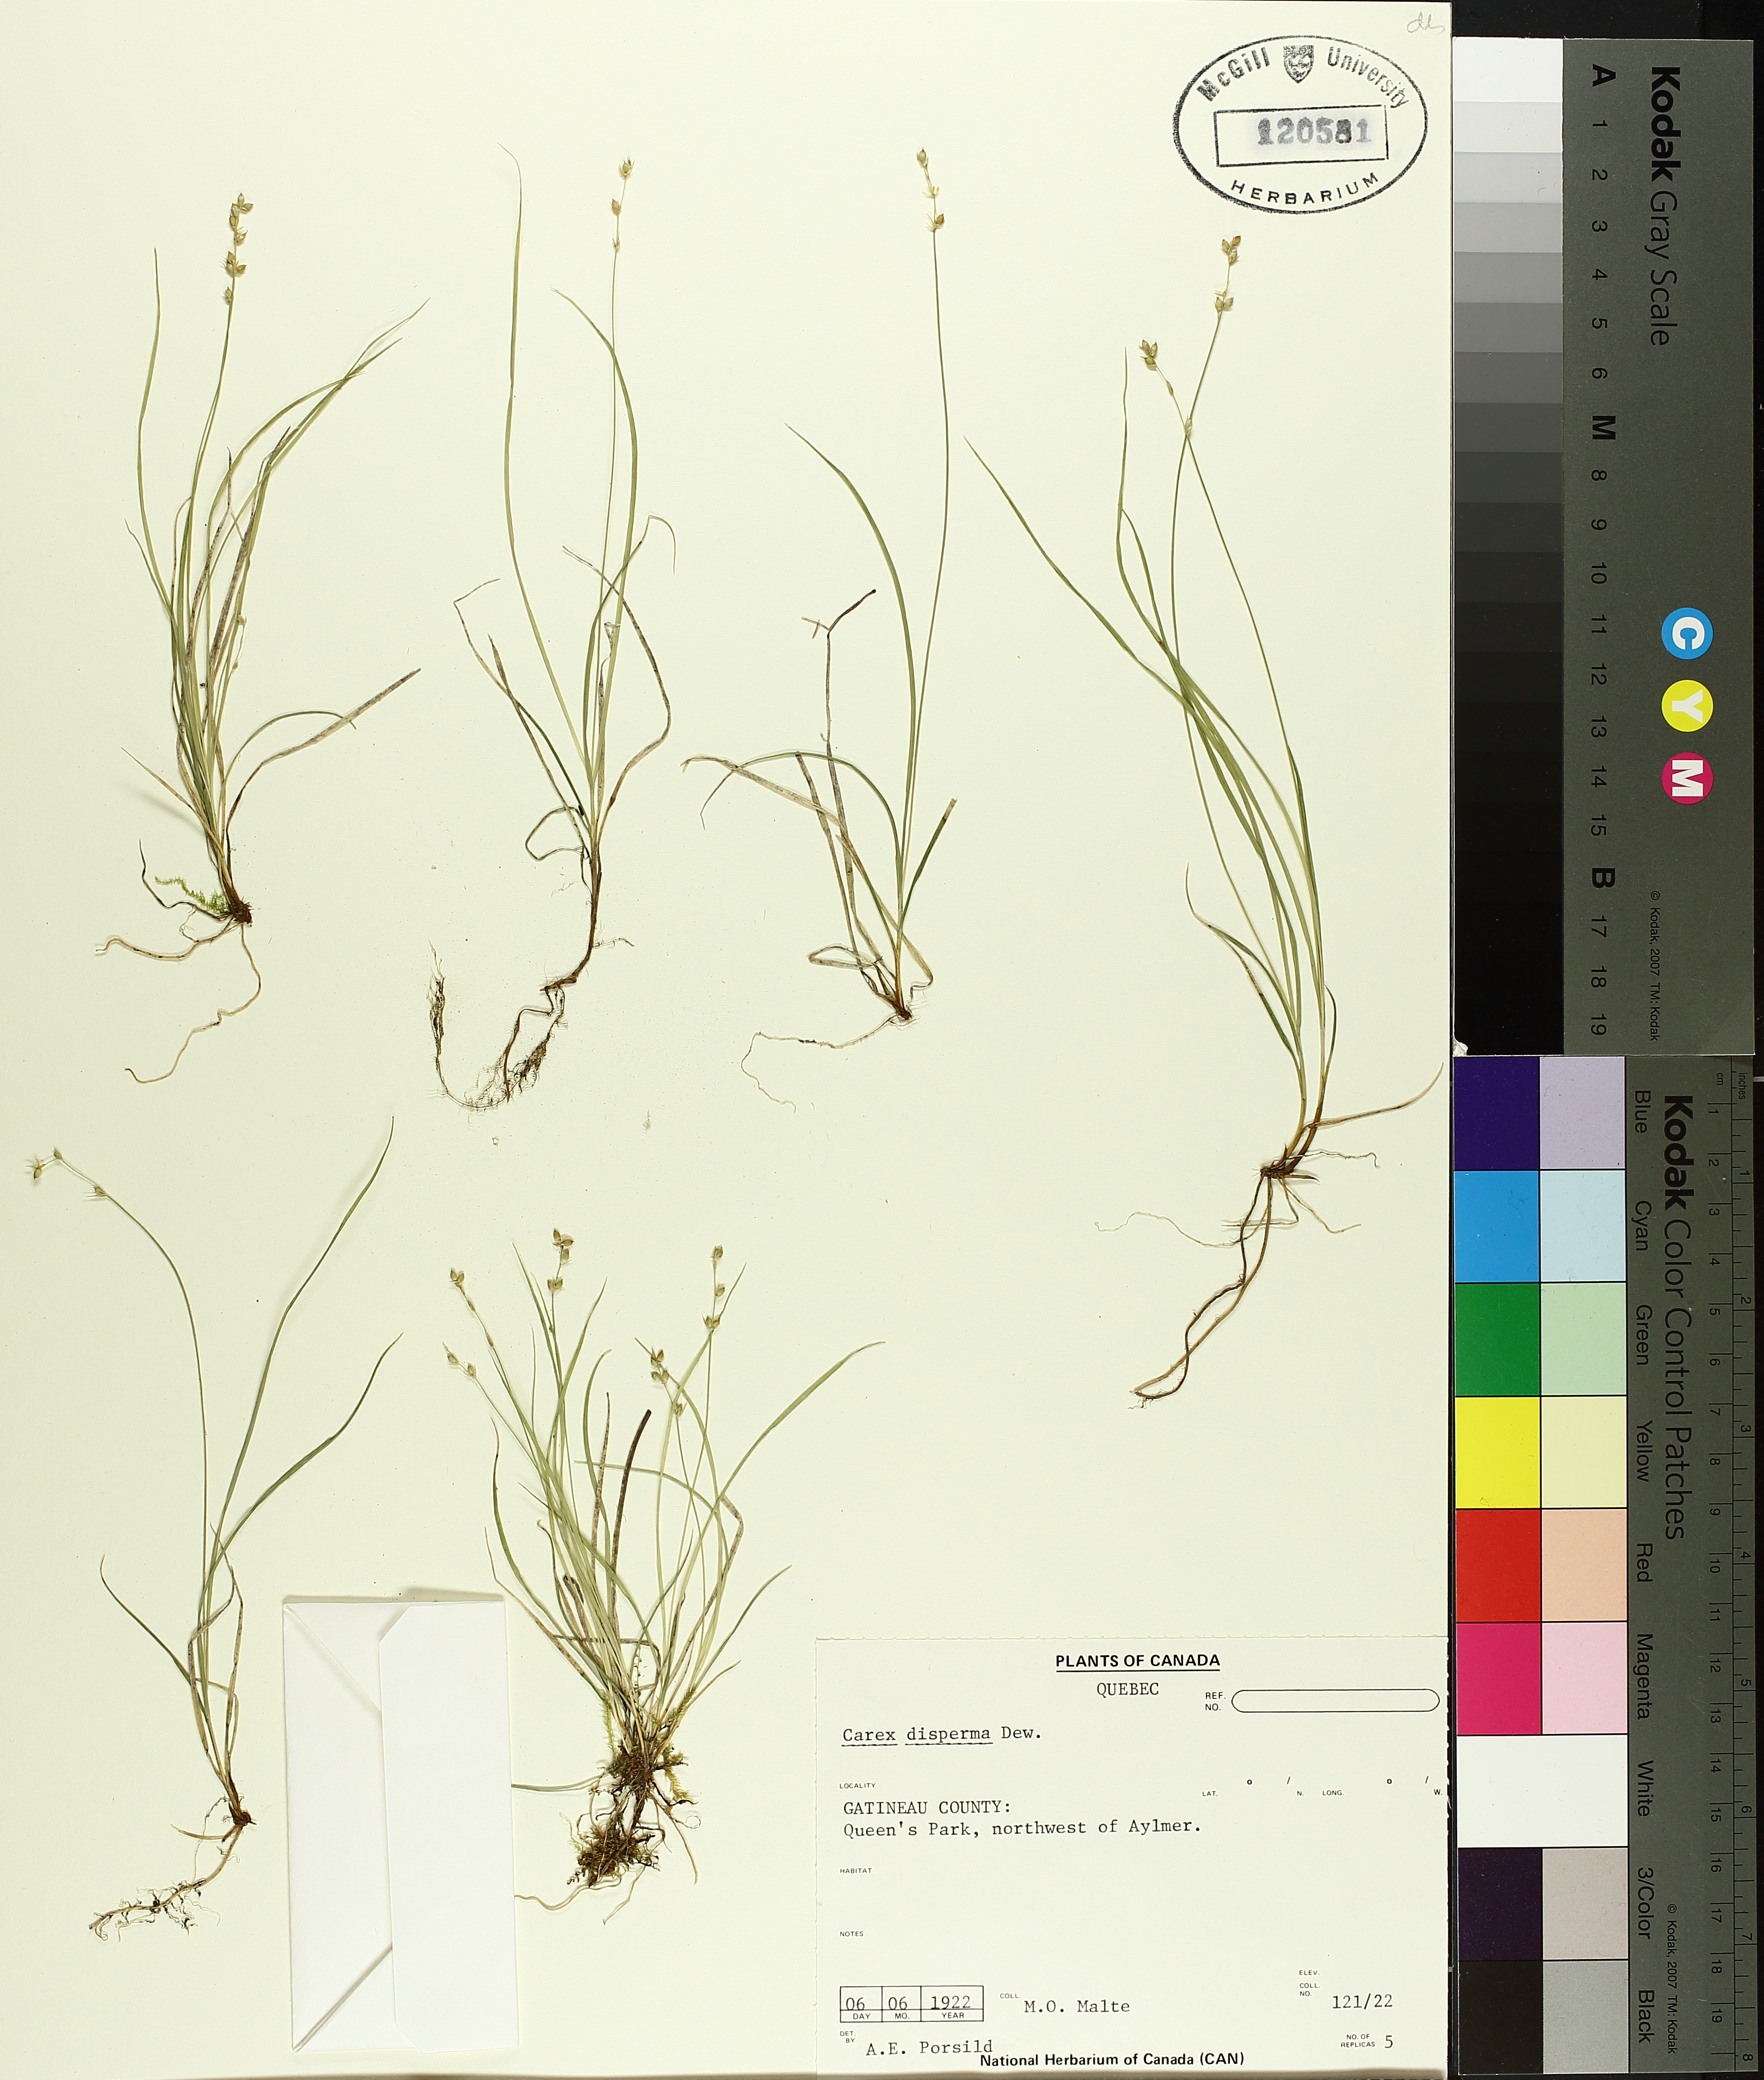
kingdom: Plantae
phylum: Tracheophyta
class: Liliopsida
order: Poales
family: Cyperaceae
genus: Carex
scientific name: Carex disperma
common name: Short-leaved sedge
